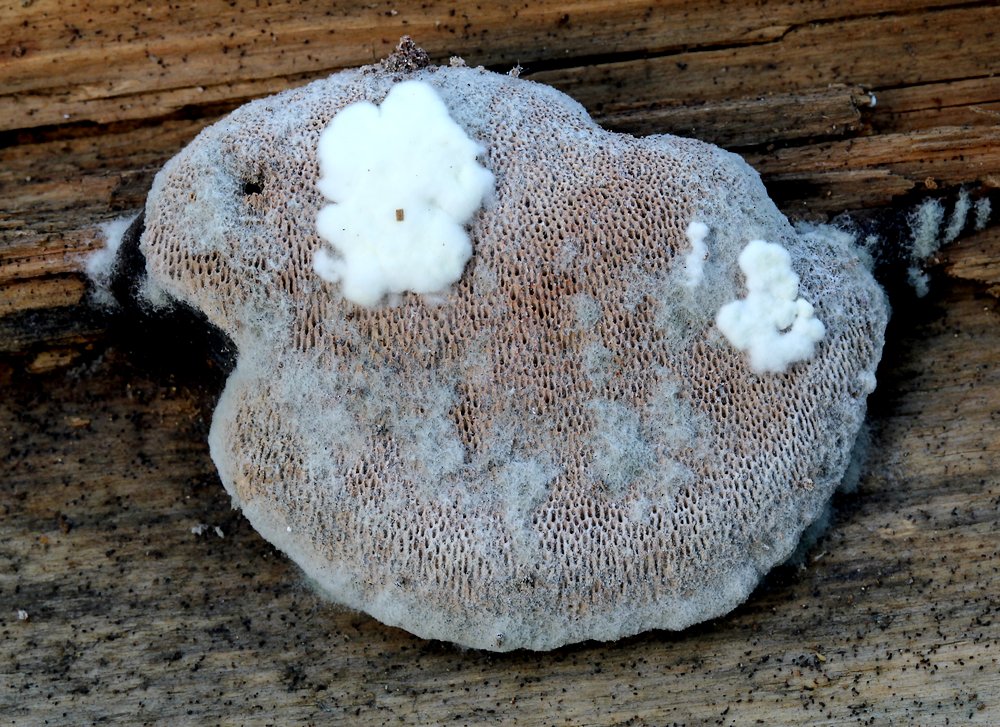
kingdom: Fungi
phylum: Basidiomycota
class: Agaricomycetes
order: Polyporales
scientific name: Polyporales
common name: poresvampordenen
